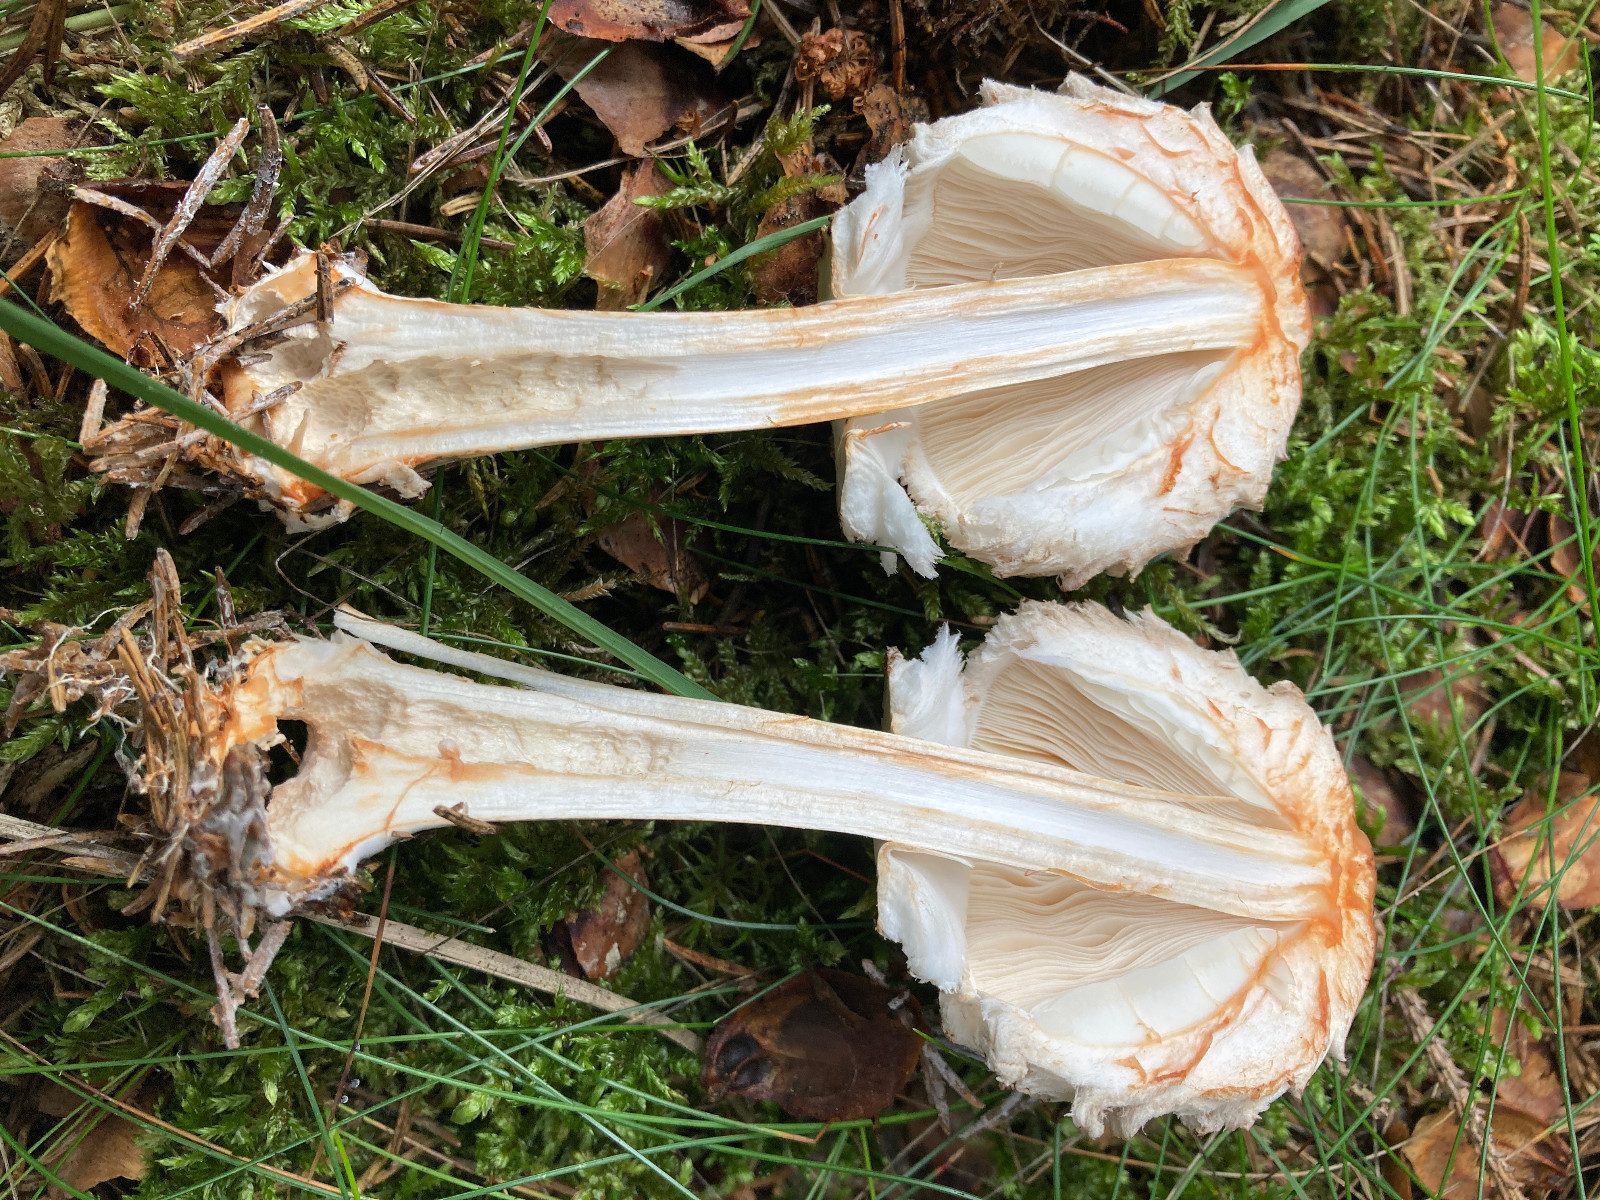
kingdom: Fungi
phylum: Basidiomycota
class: Agaricomycetes
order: Agaricales
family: Agaricaceae
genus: Chlorophyllum
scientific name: Chlorophyllum olivieri
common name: almindelig rabarberhat
